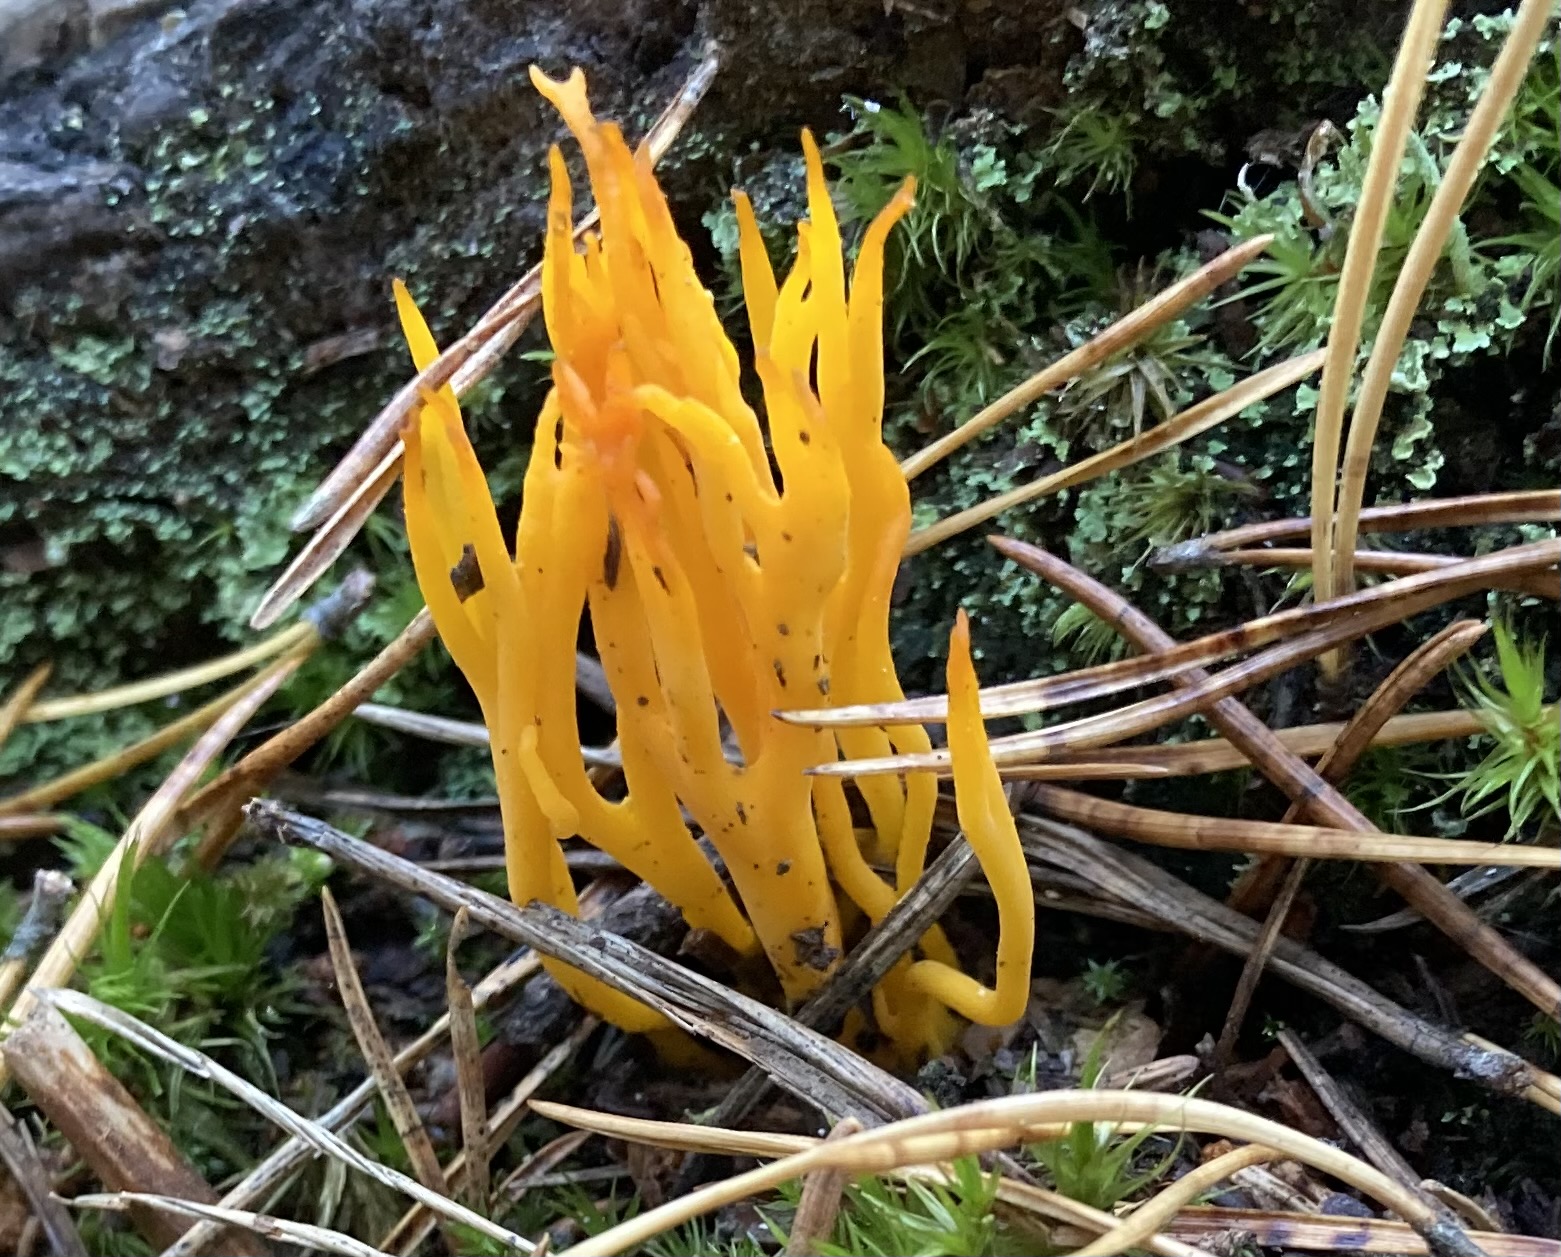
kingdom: Fungi
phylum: Basidiomycota
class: Dacrymycetes
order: Dacrymycetales
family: Dacrymycetaceae
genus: Calocera
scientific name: Calocera viscosa
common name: almindelig guldgaffel
